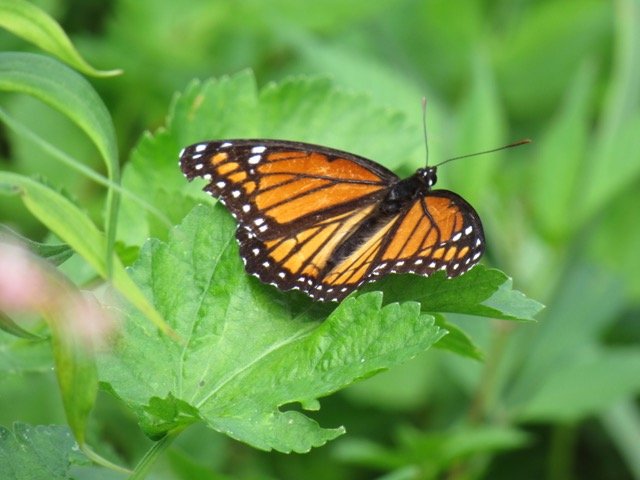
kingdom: Animalia
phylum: Arthropoda
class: Insecta
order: Lepidoptera
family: Nymphalidae
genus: Limenitis
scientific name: Limenitis archippus
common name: Viceroy
